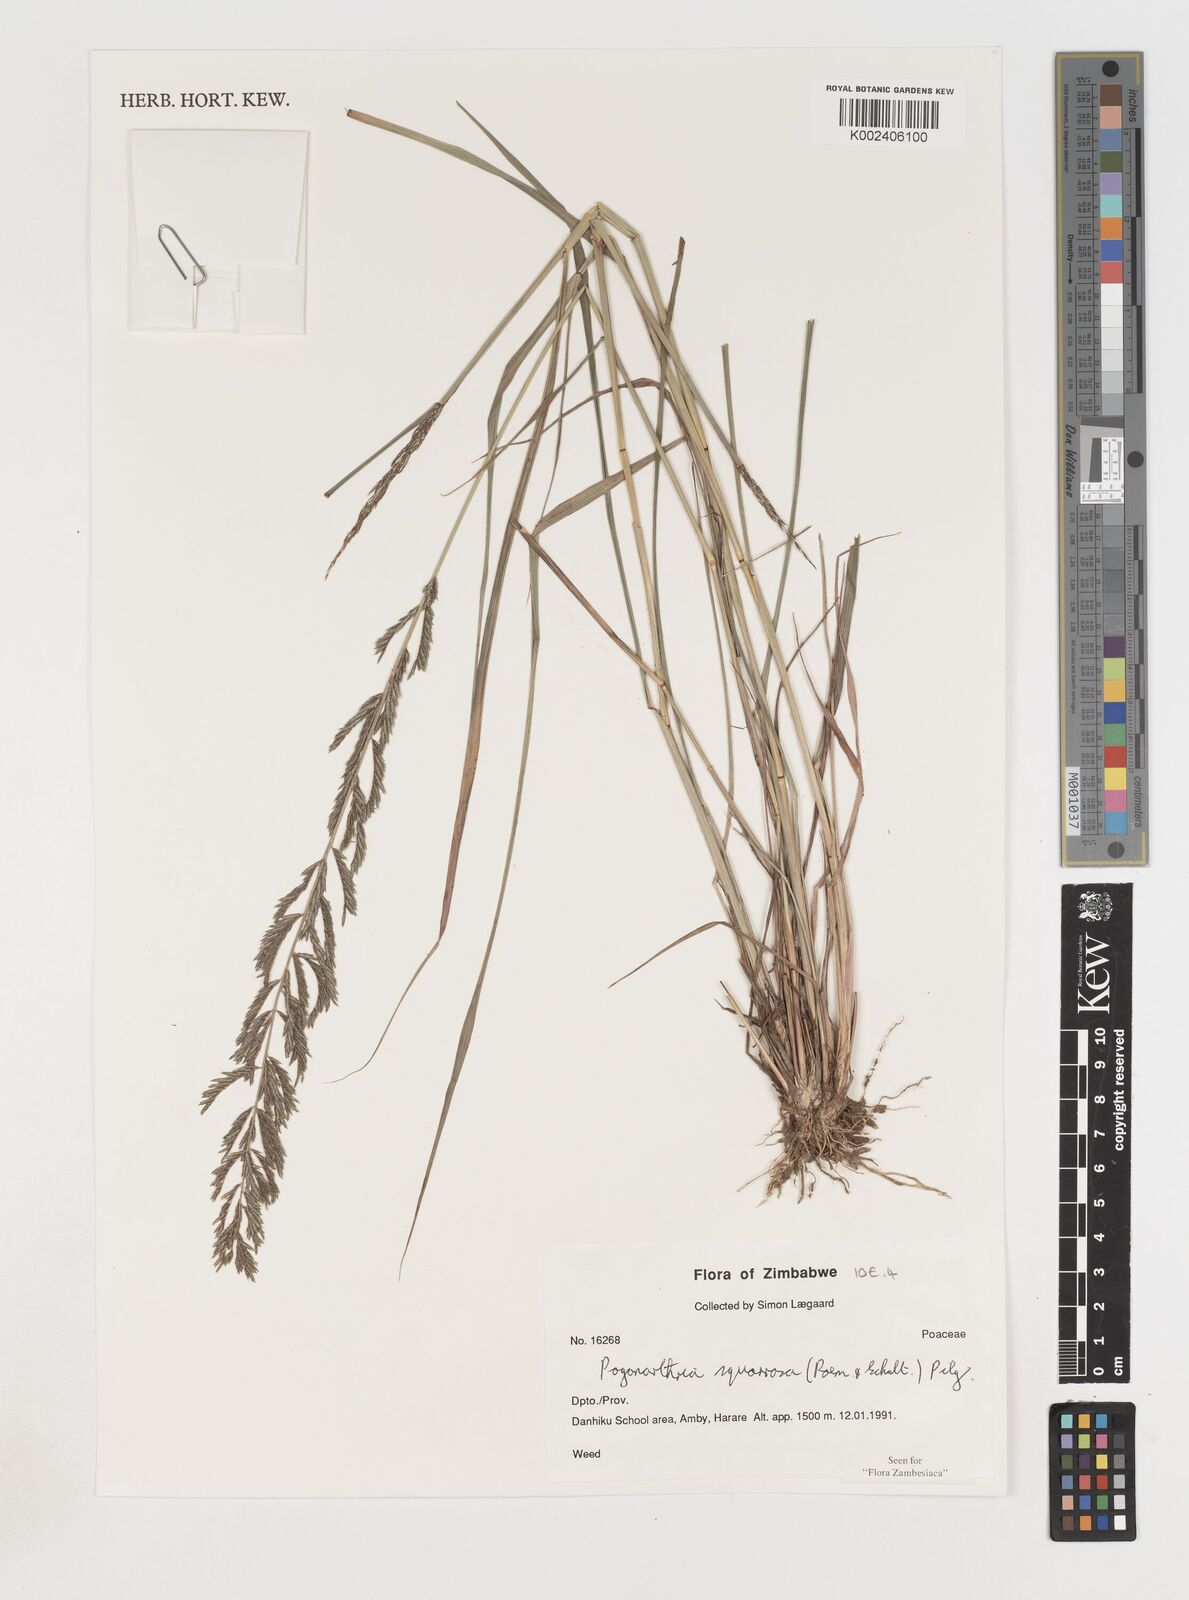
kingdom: Plantae
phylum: Tracheophyta
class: Liliopsida
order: Poales
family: Poaceae
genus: Pogonarthria
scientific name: Pogonarthria squarrosa
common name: Grass
